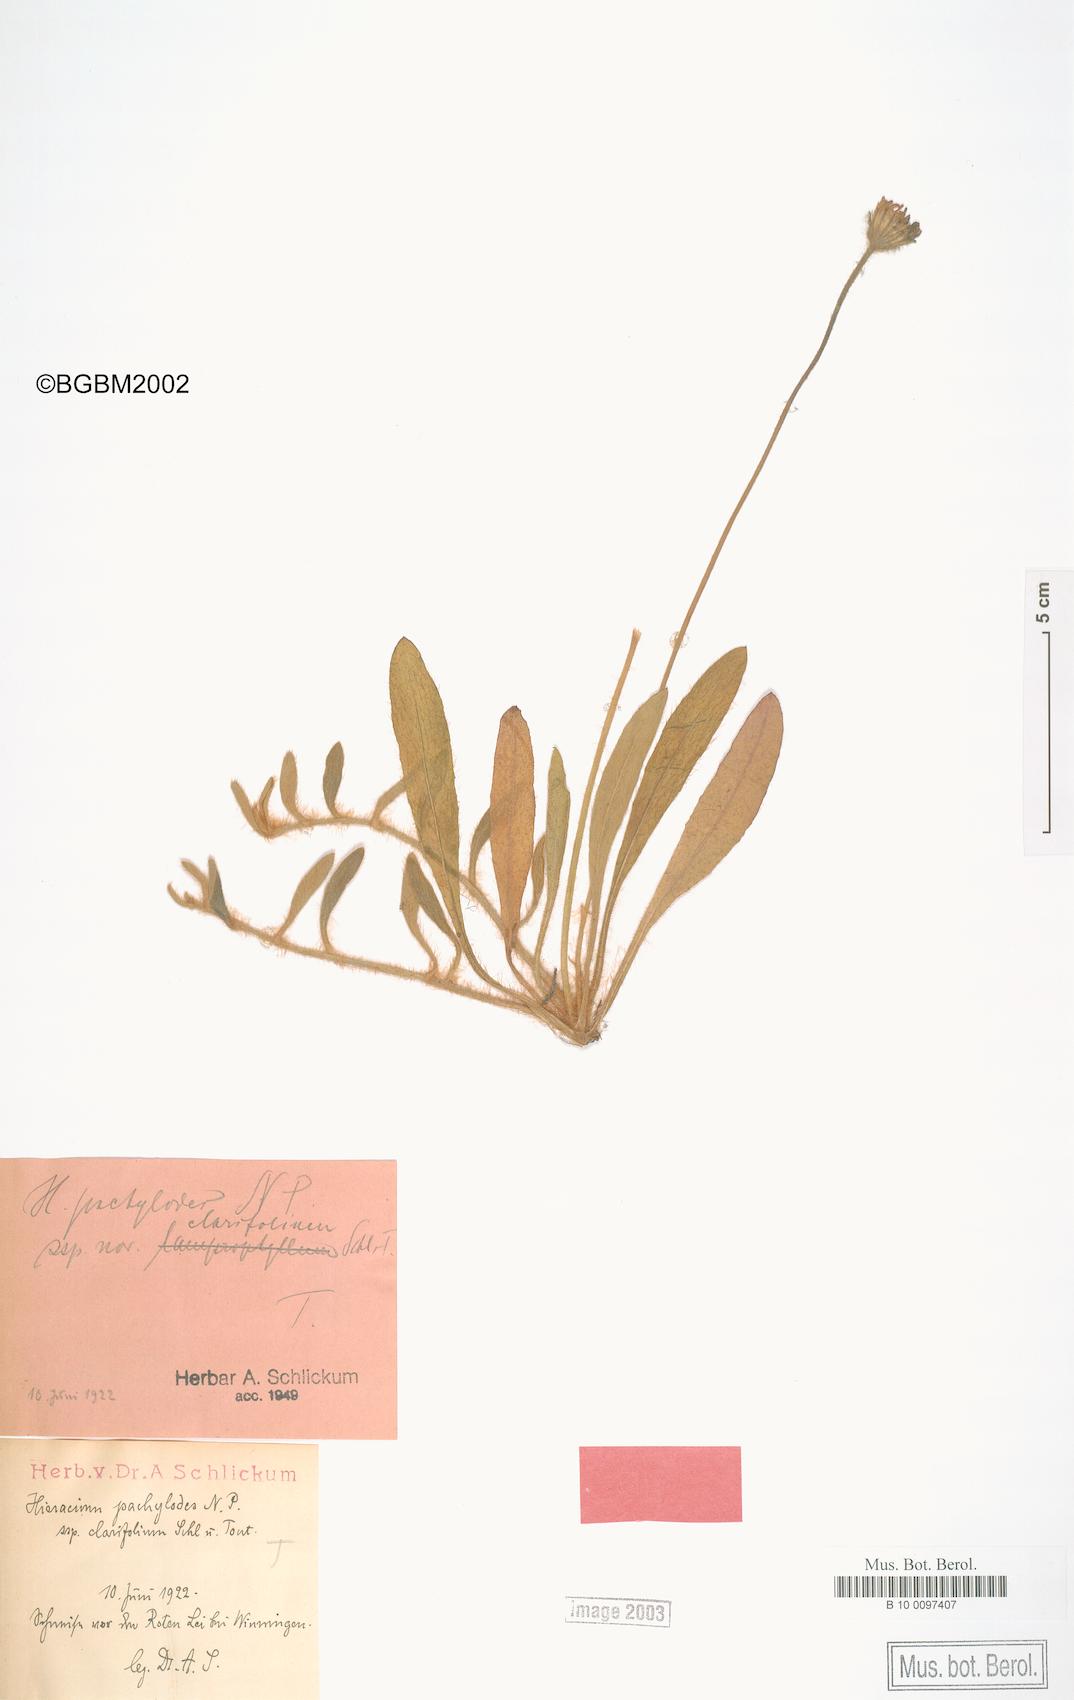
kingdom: Plantae
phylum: Tracheophyta
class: Magnoliopsida
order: Asterales
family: Asteraceae
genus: Pilosella
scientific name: Pilosella longisquama
